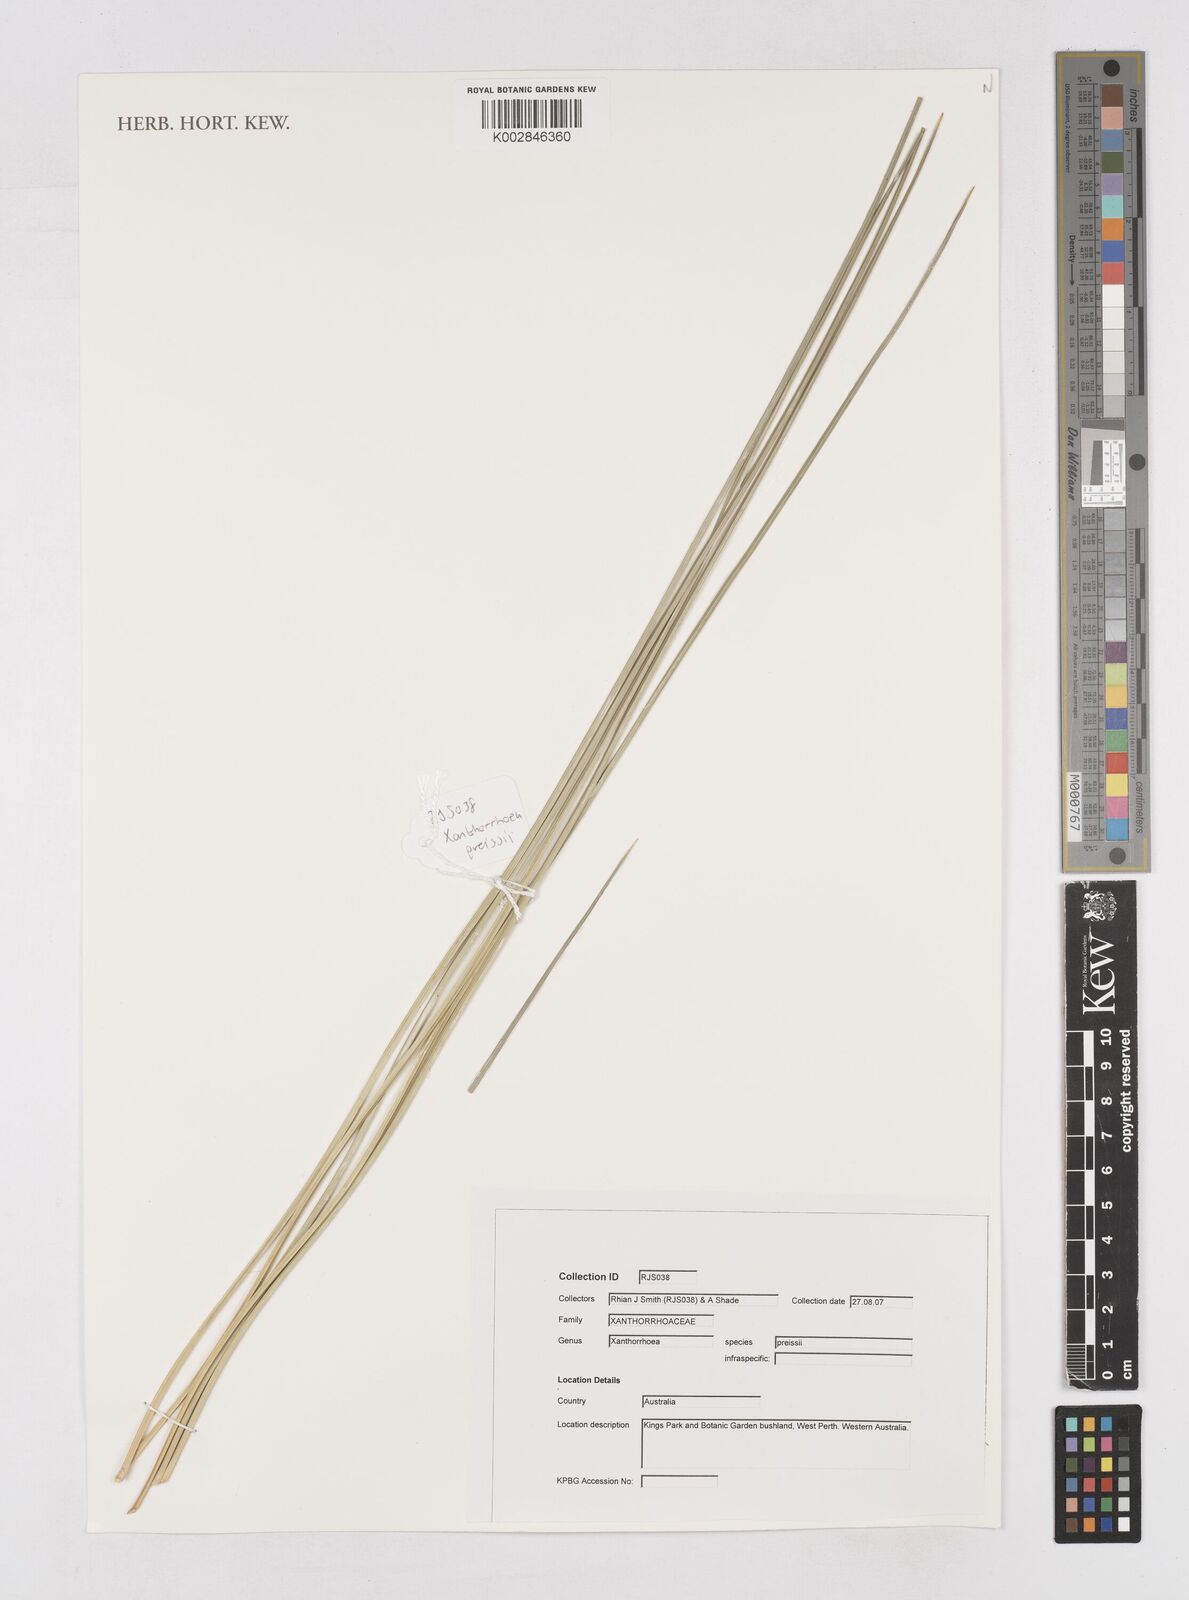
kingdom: Plantae
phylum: Tracheophyta
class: Liliopsida
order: Asparagales
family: Asphodelaceae
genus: Xanthorrhoea
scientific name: Xanthorrhoea preissii
